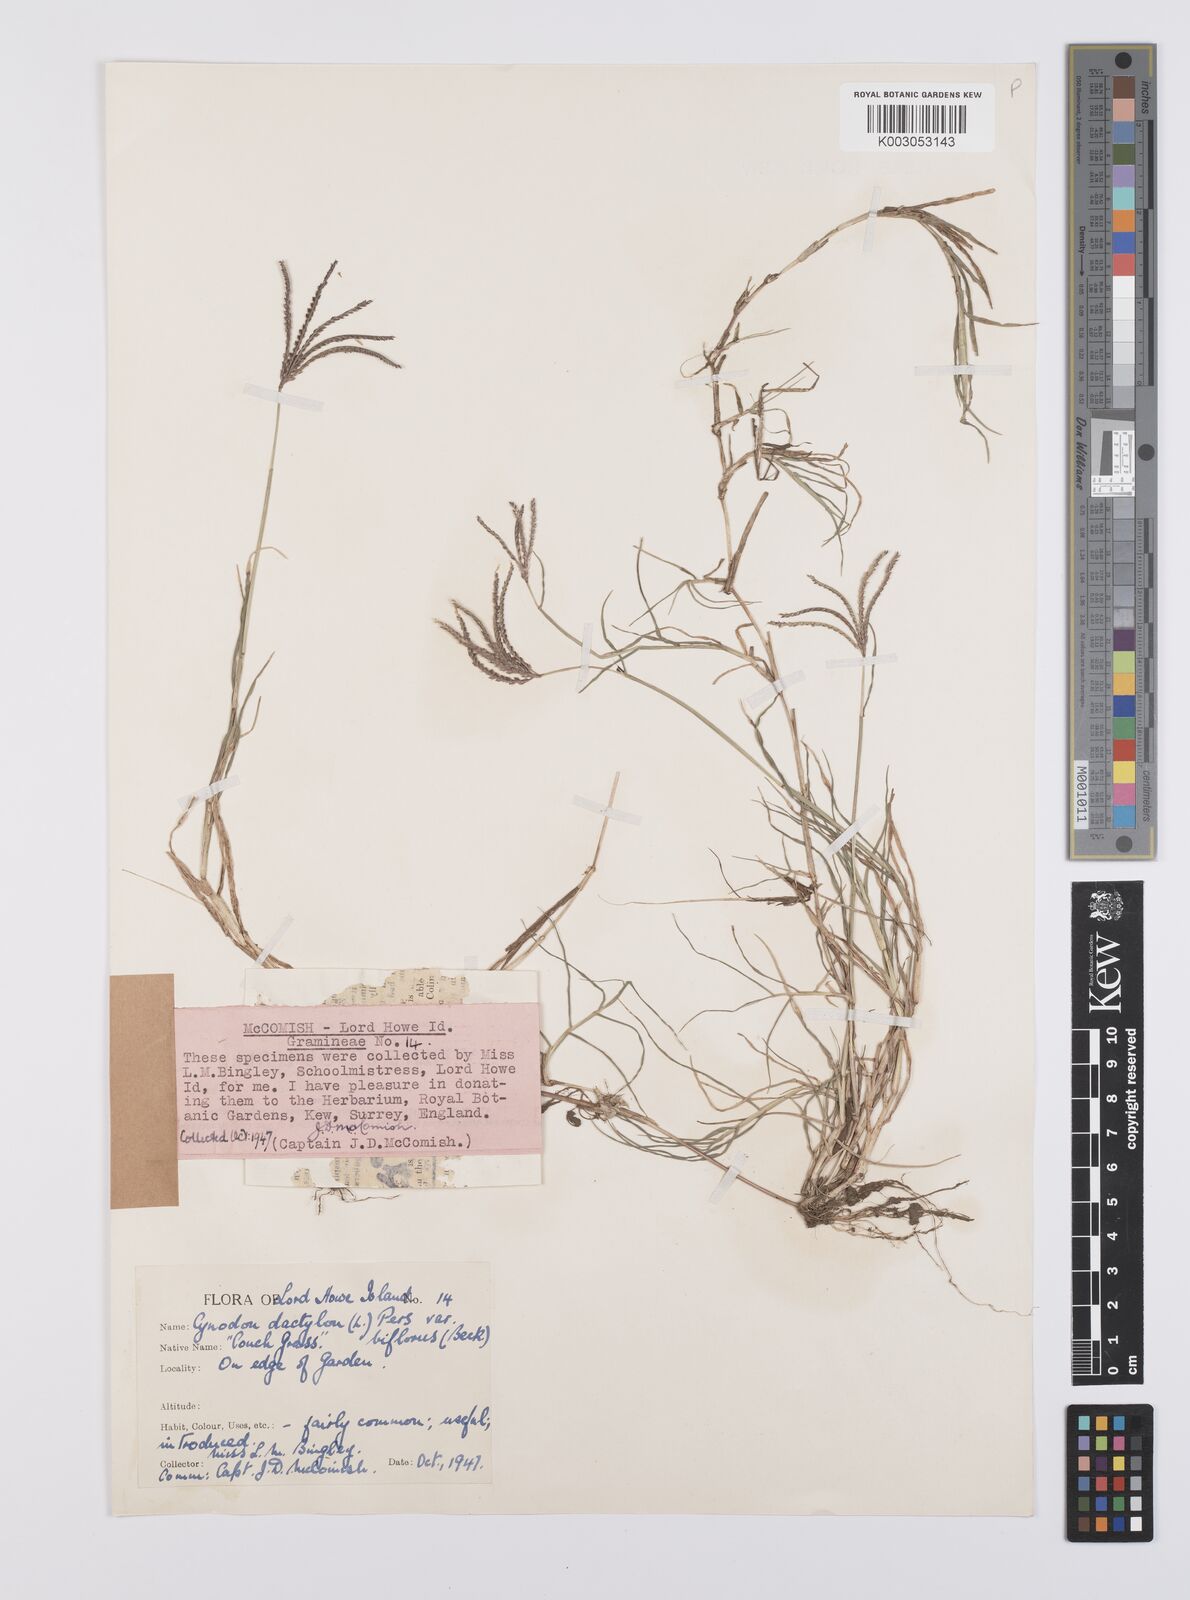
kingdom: Plantae
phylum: Tracheophyta
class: Liliopsida
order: Poales
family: Poaceae
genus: Cynodon
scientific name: Cynodon dactylon
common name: Bermuda grass
